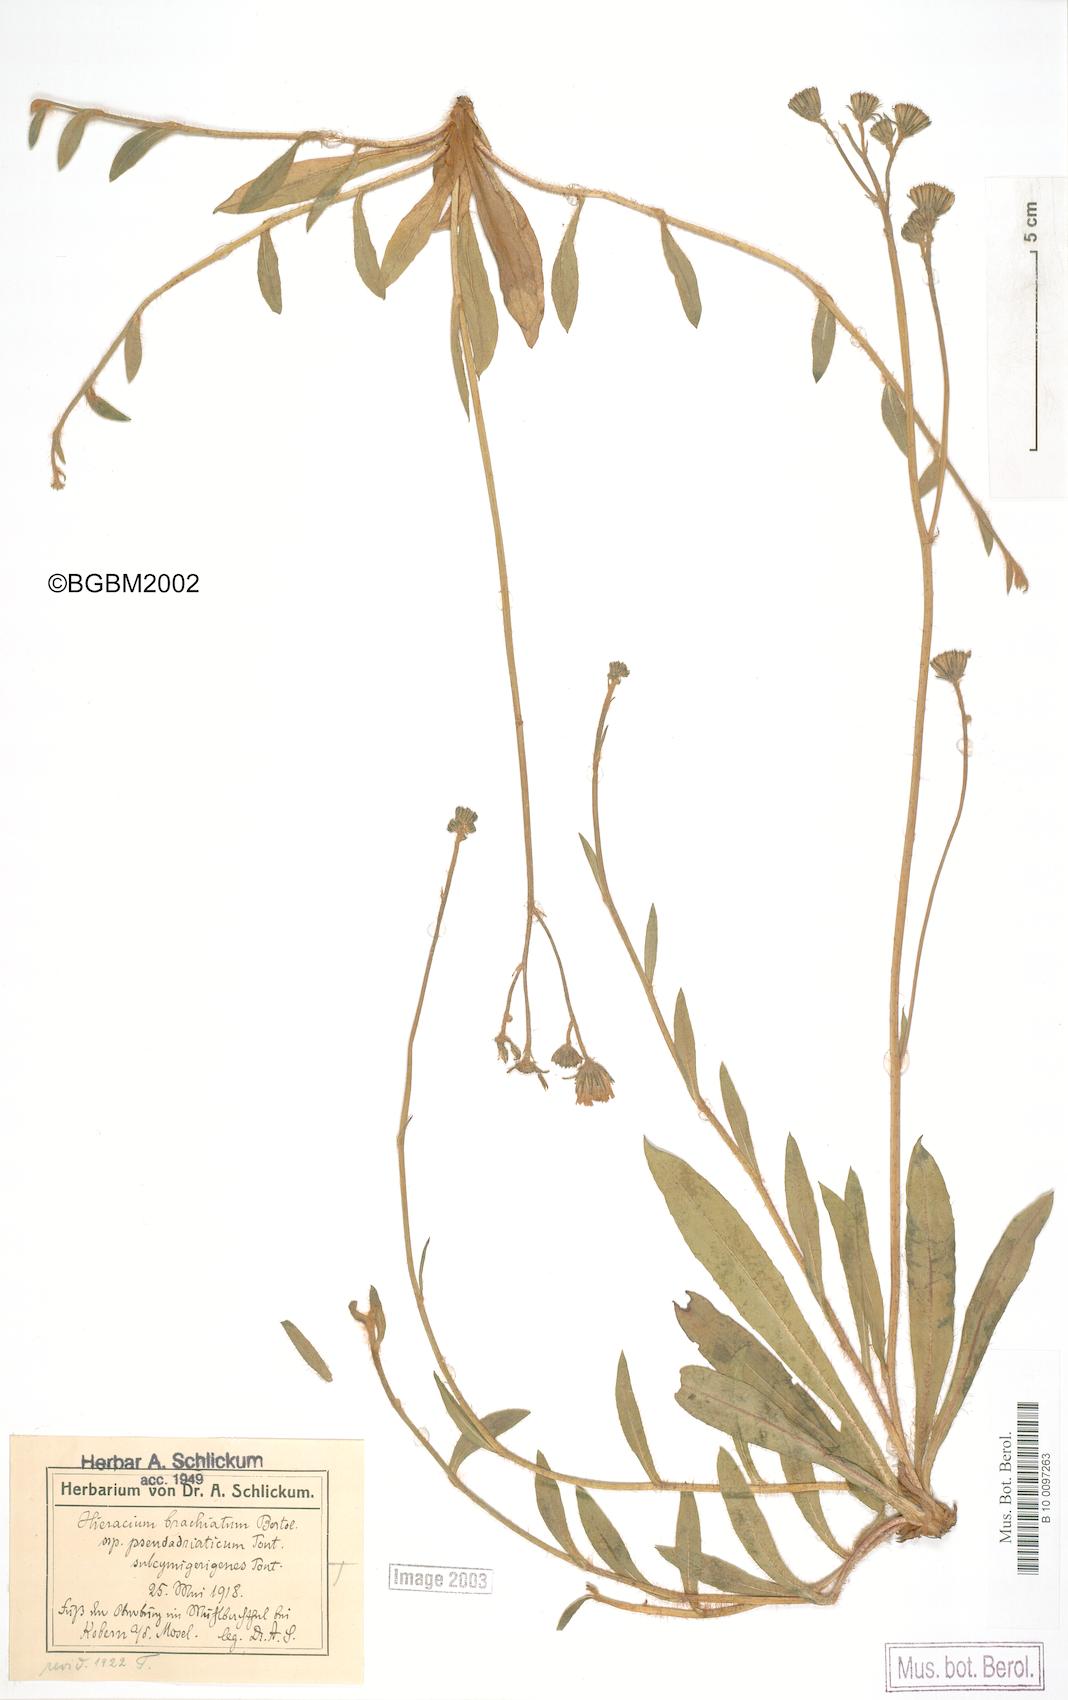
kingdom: Plantae
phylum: Tracheophyta
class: Magnoliopsida
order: Asterales
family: Asteraceae
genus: Pilosella
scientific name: Pilosella acutifolia
